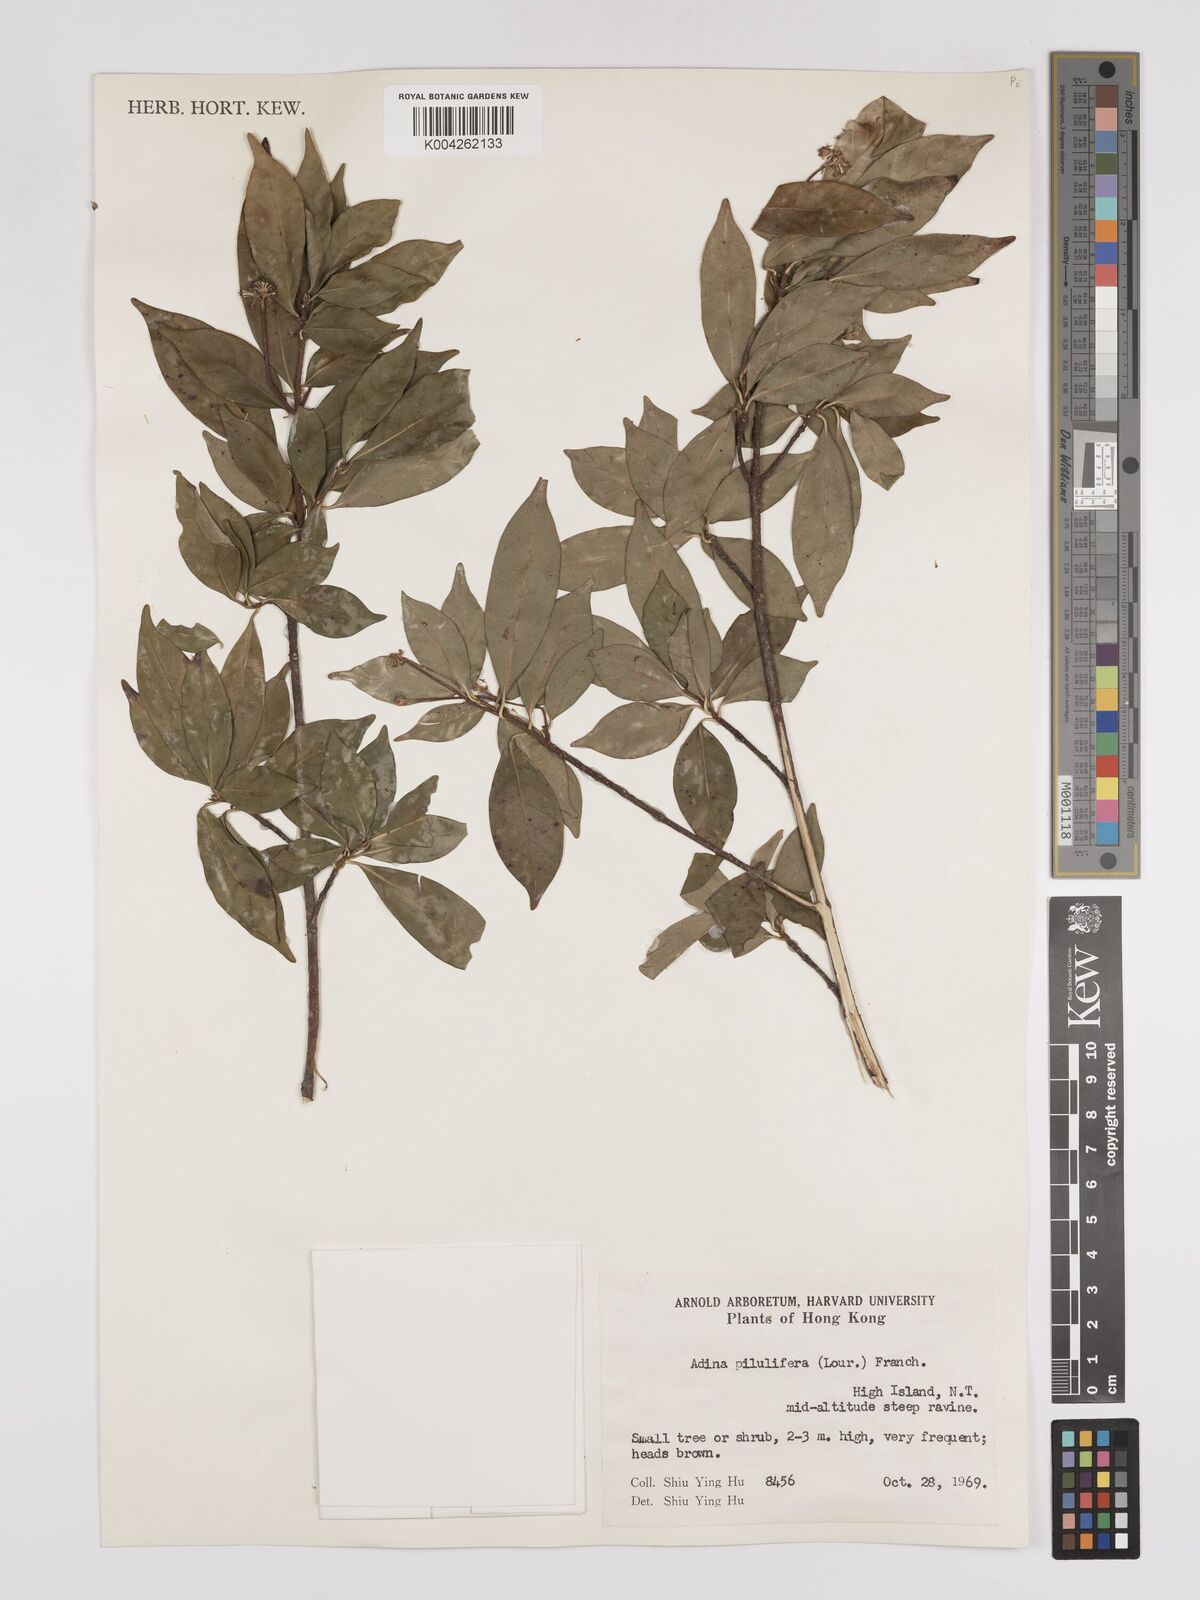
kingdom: Plantae
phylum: Tracheophyta
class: Magnoliopsida
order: Gentianales
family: Rubiaceae
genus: Adina
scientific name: Adina pilulifera
